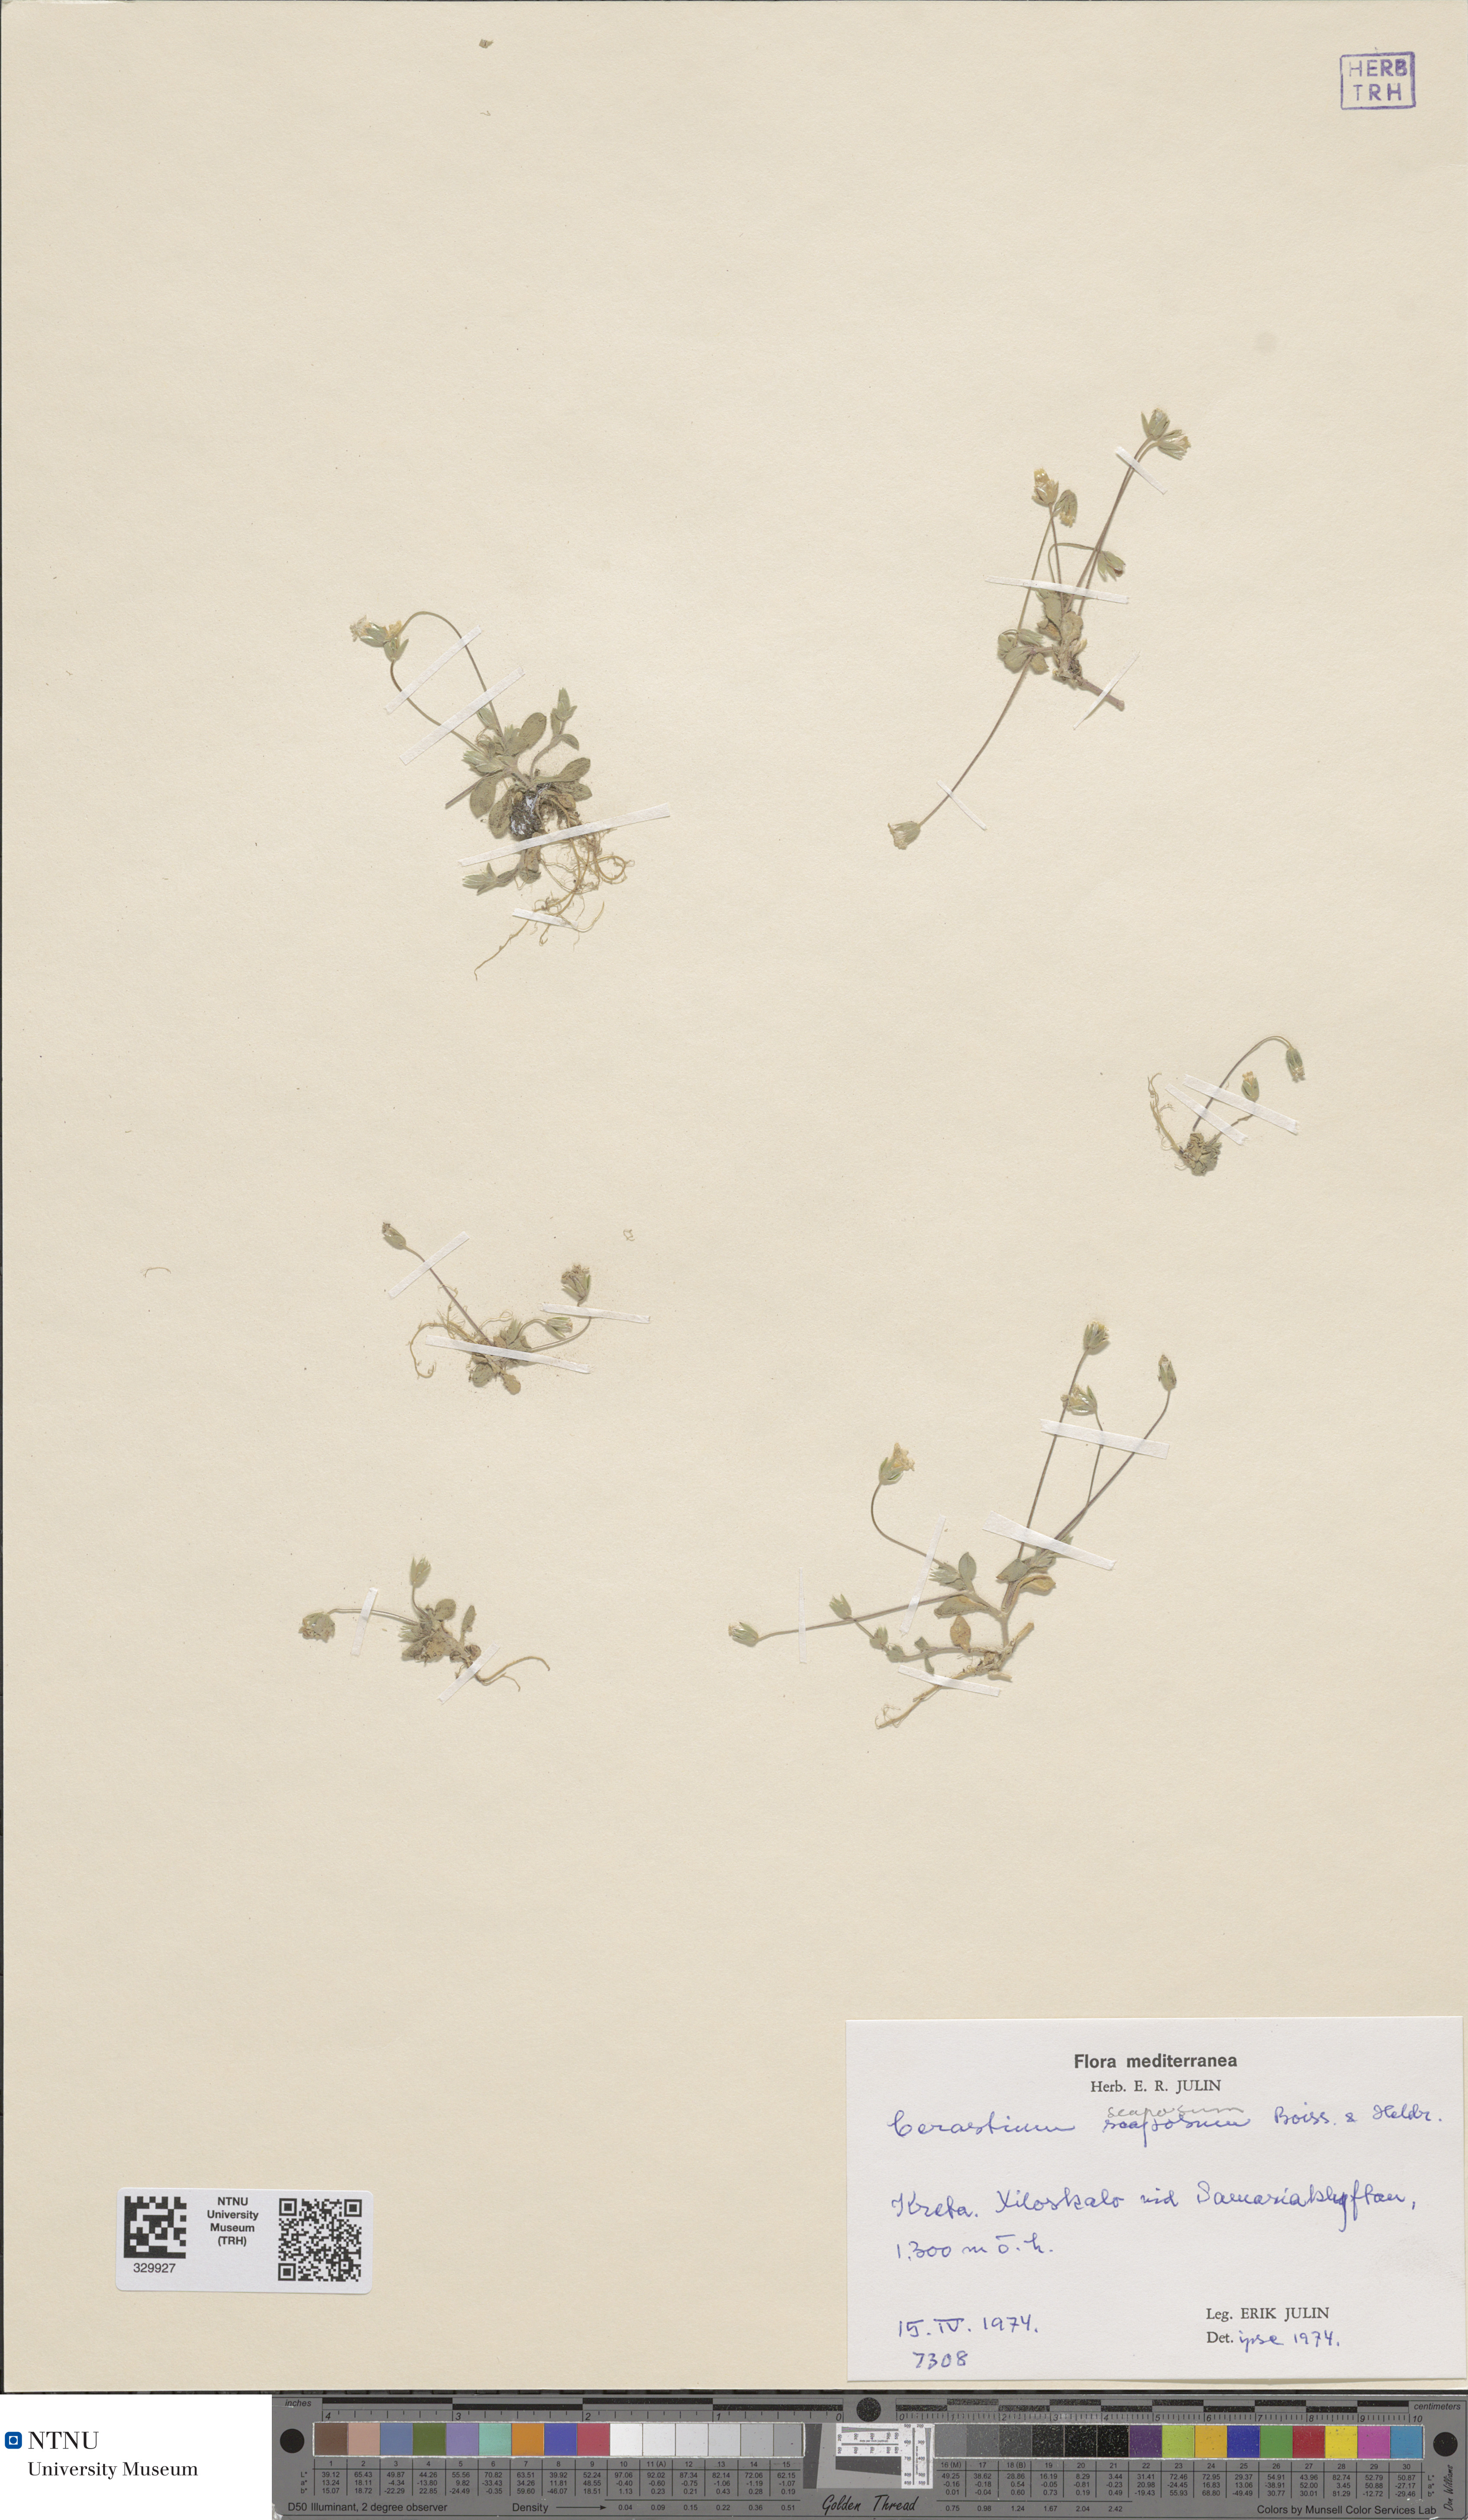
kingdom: Plantae
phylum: Tracheophyta
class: Magnoliopsida
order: Caryophyllales
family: Caryophyllaceae
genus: Cerastium
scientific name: Cerastium scaposum
